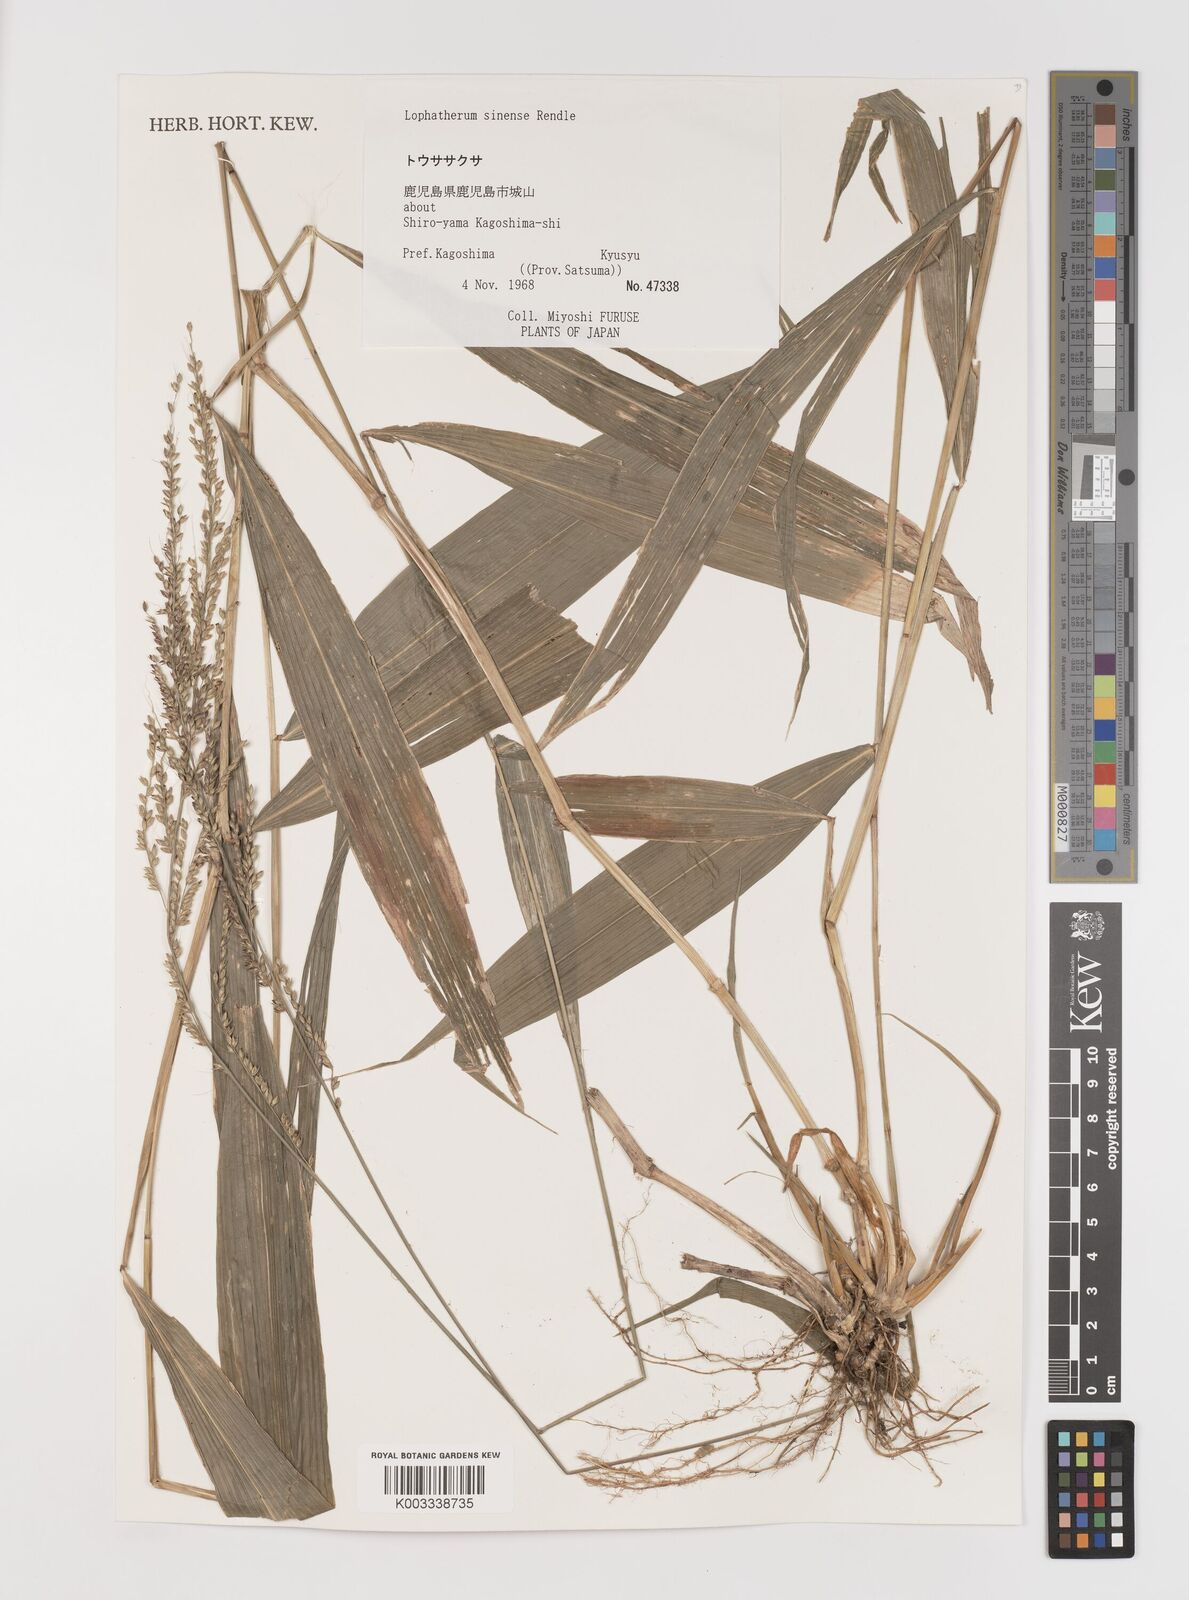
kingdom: Plantae
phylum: Tracheophyta
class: Liliopsida
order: Poales
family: Poaceae
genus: Setaria
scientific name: Setaria plicata
